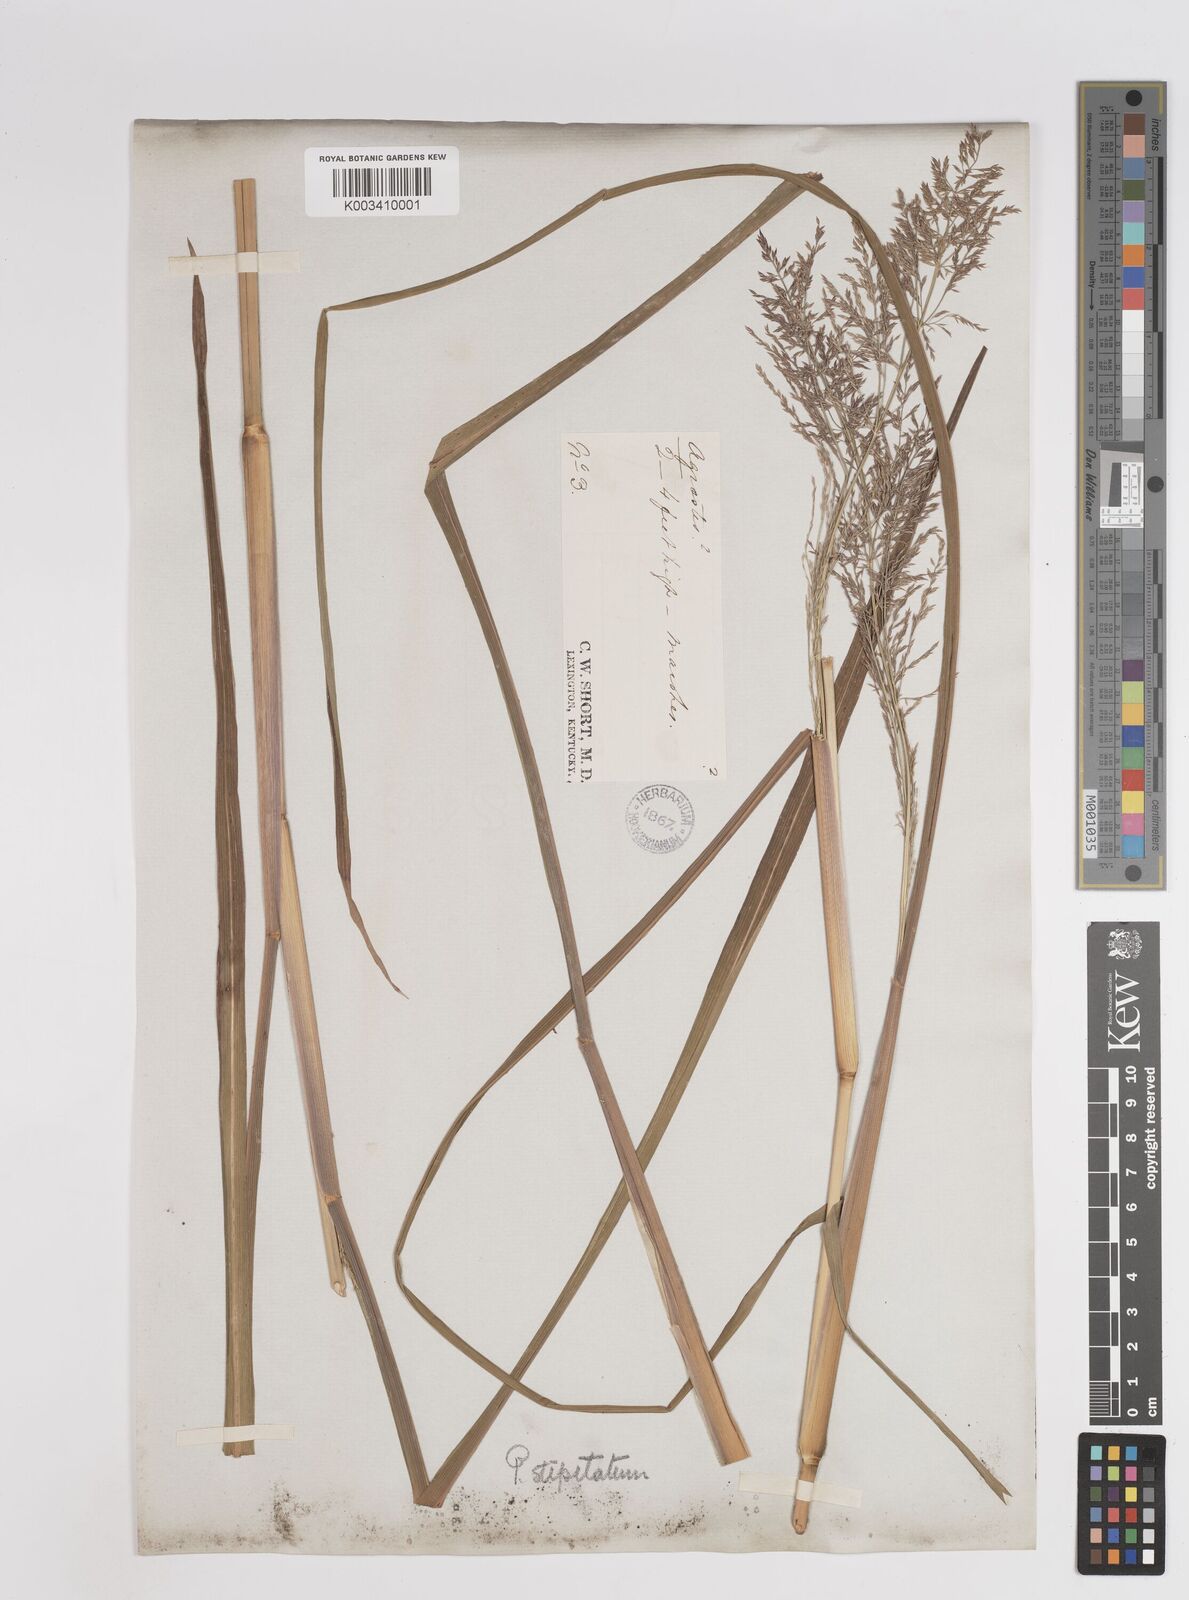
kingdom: Plantae
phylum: Tracheophyta
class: Liliopsida
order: Poales
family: Poaceae
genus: Coleataenia
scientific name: Coleataenia pulchra
